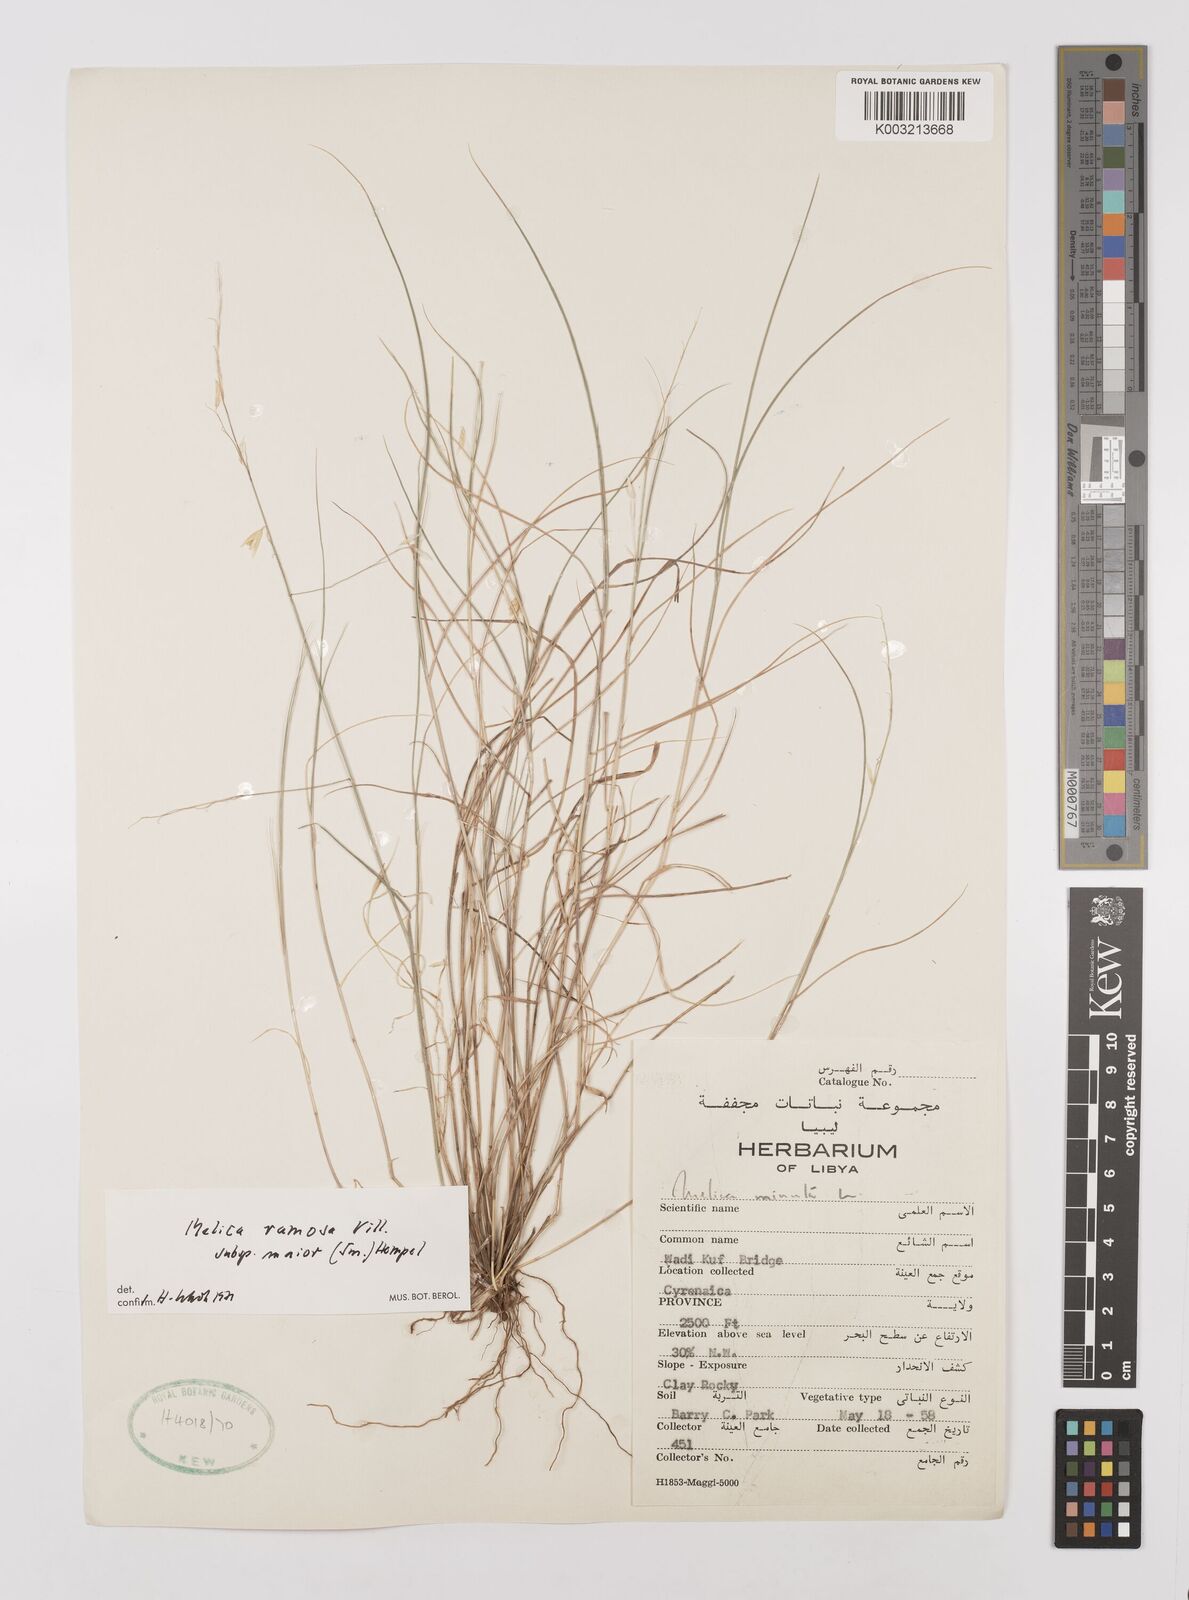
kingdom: Plantae
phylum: Tracheophyta
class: Liliopsida
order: Poales
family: Poaceae
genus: Melica
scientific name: Melica minuta
